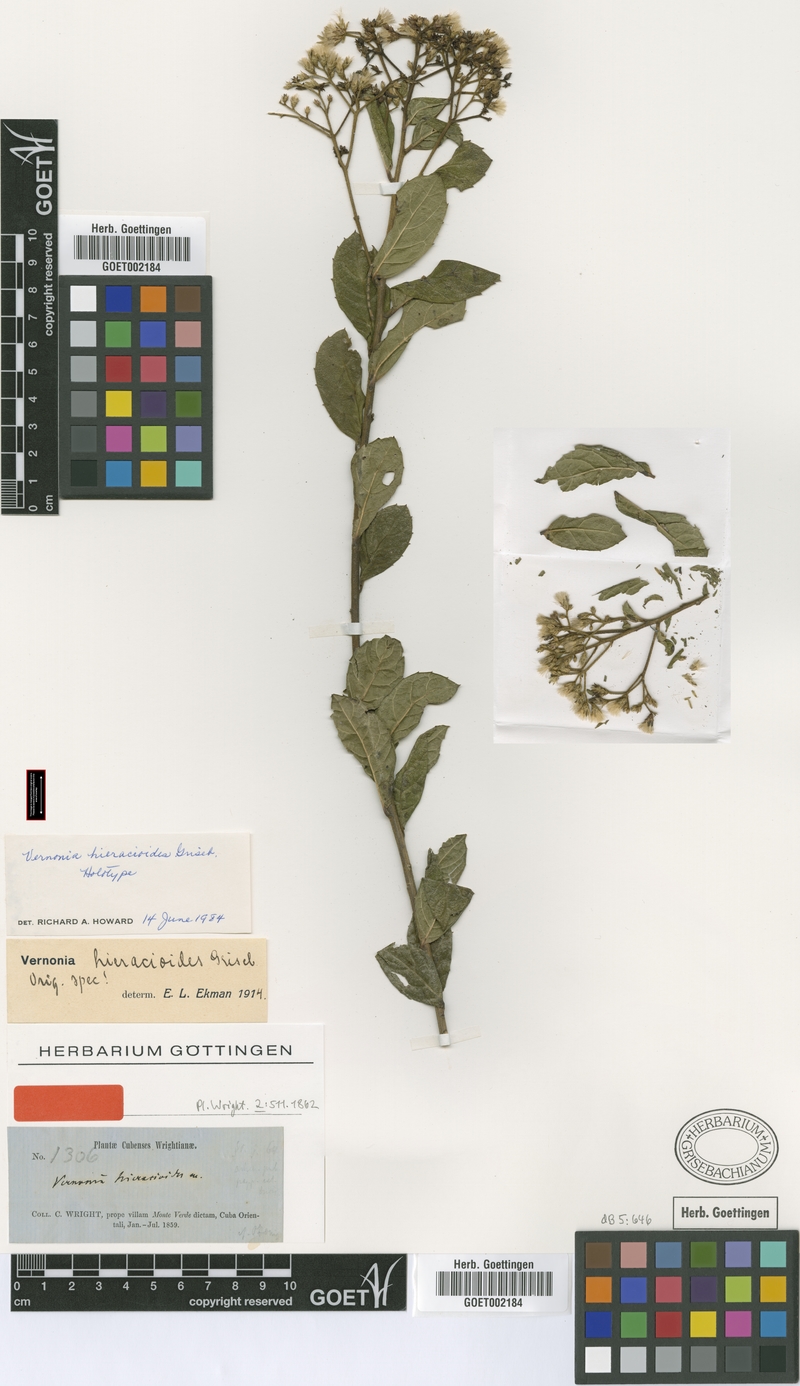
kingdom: Plantae
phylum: Tracheophyta
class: Magnoliopsida
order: Asterales
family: Asteraceae
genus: Vernonanthura
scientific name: Vernonanthura hieracioides
